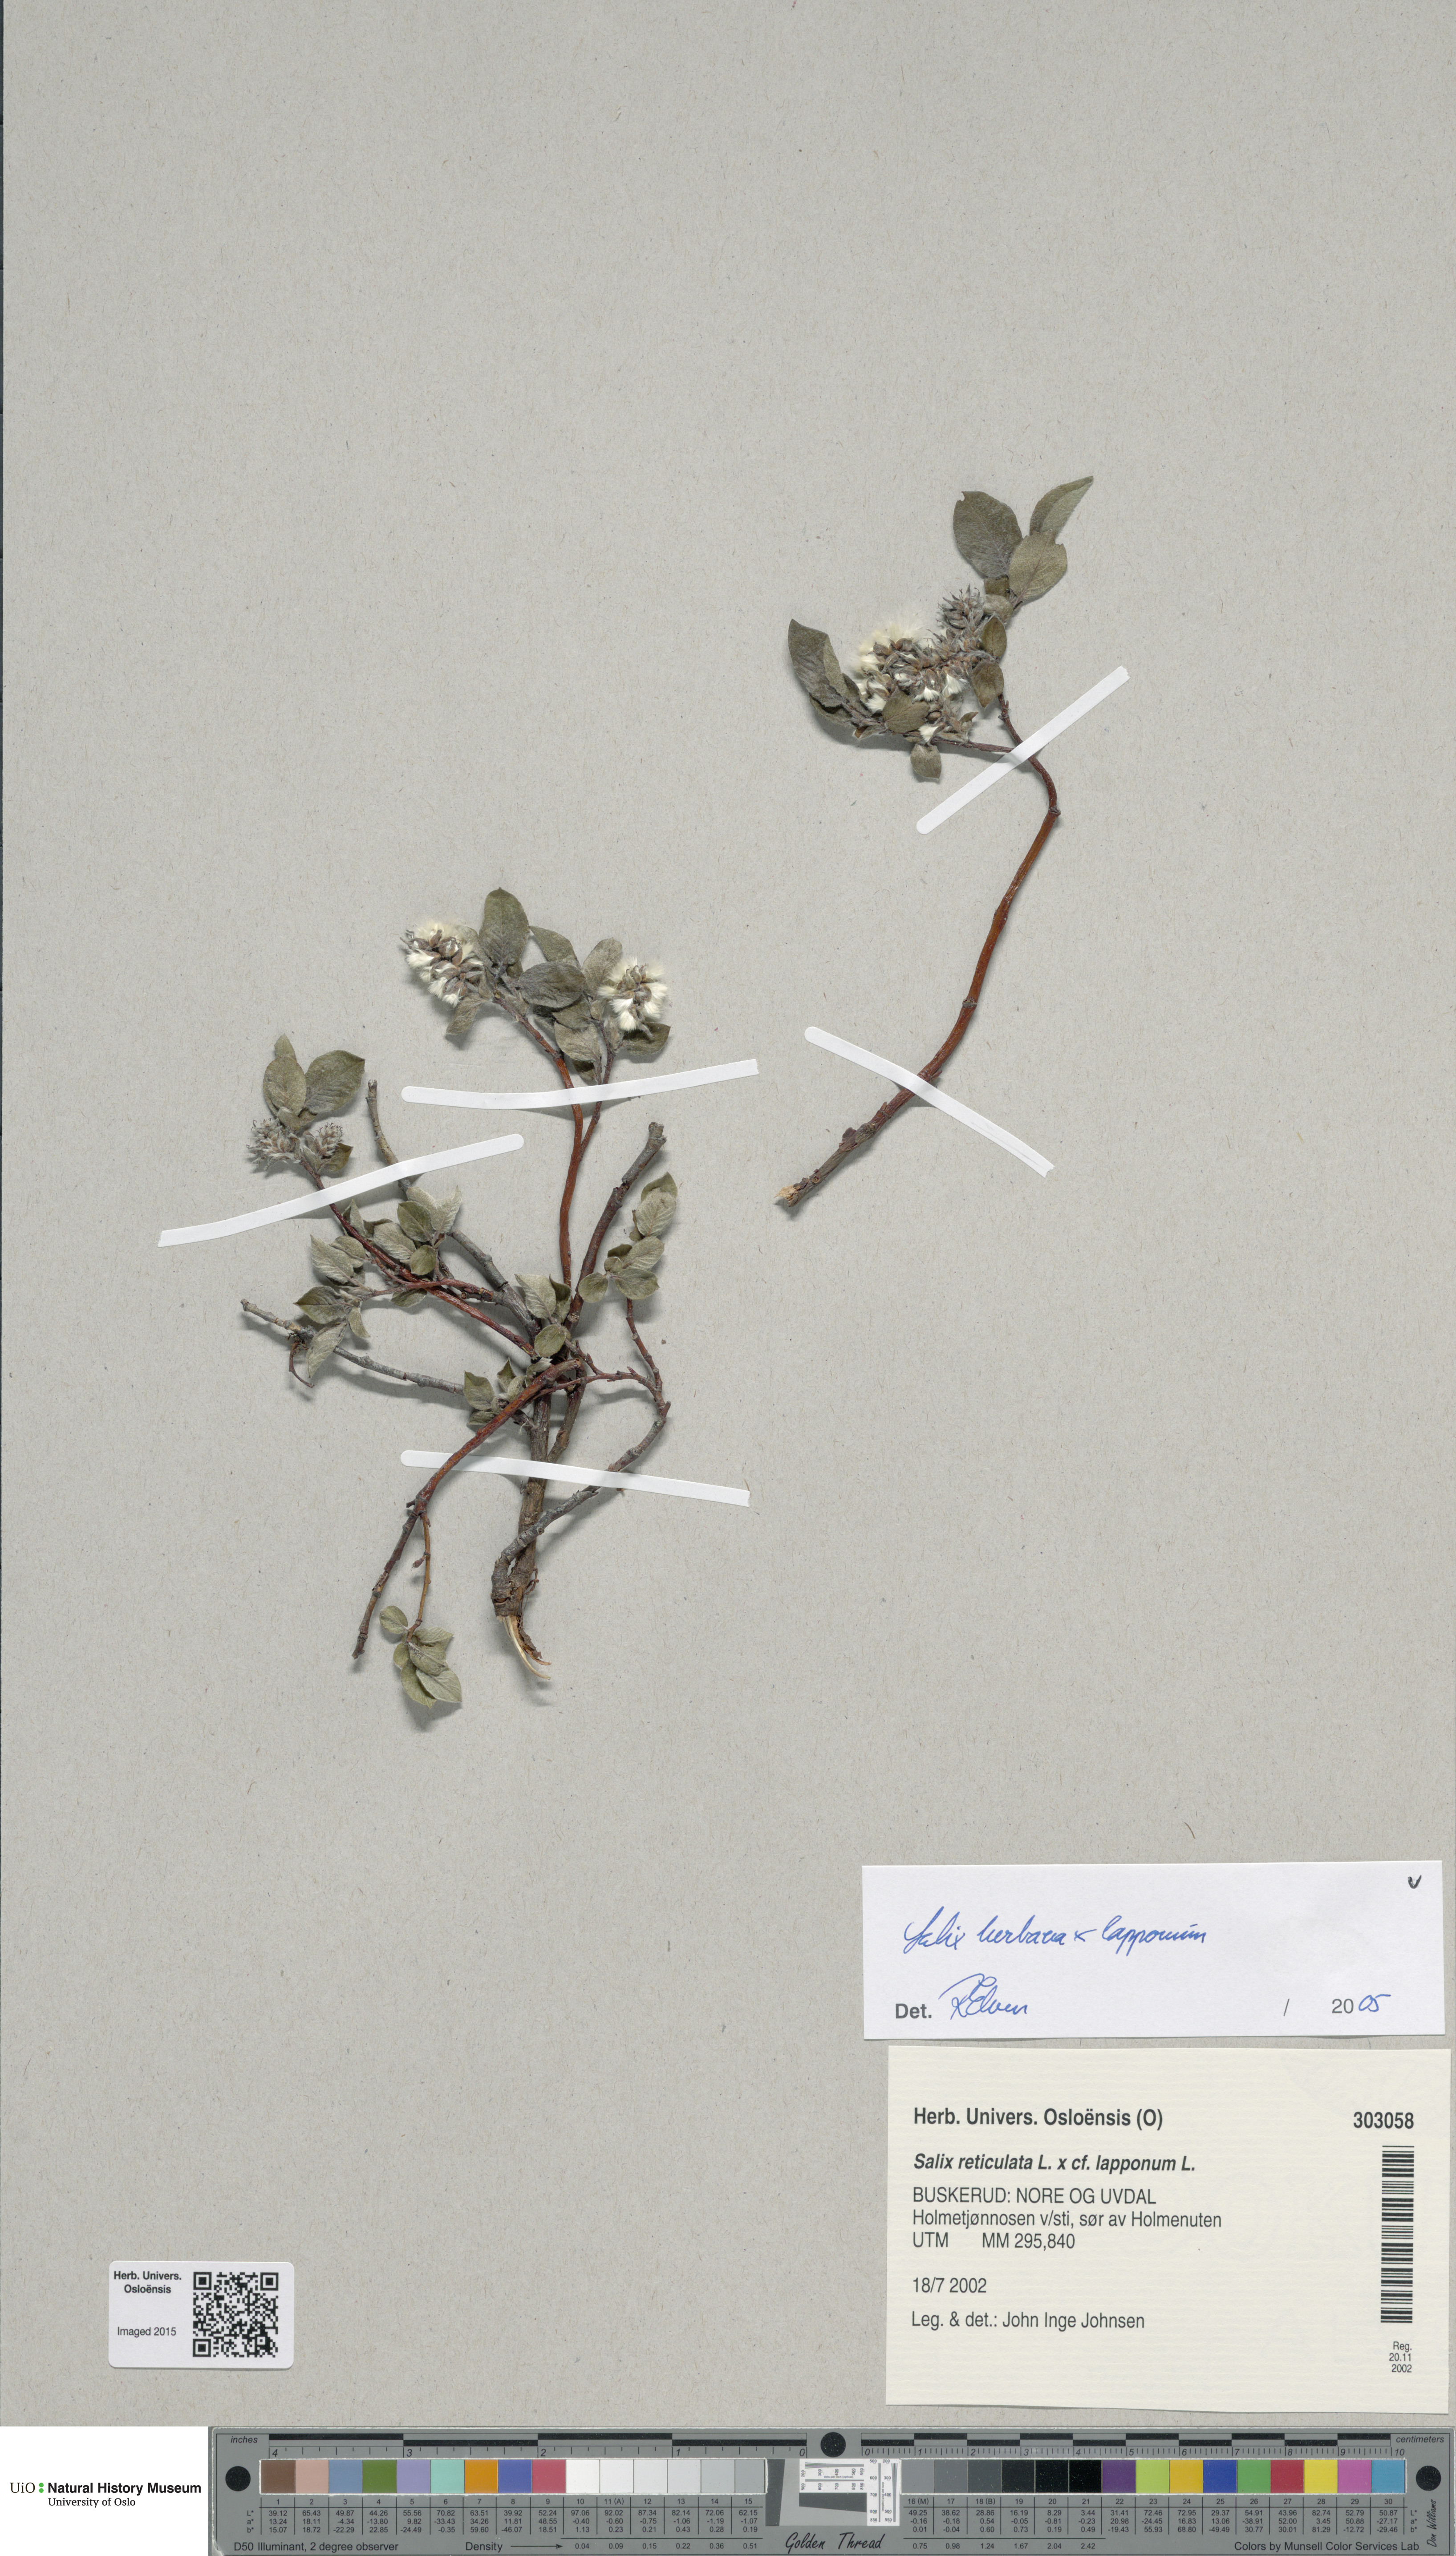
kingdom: Plantae
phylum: Tracheophyta
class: Magnoliopsida
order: Malpighiales
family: Salicaceae
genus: Salix
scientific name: Salix
